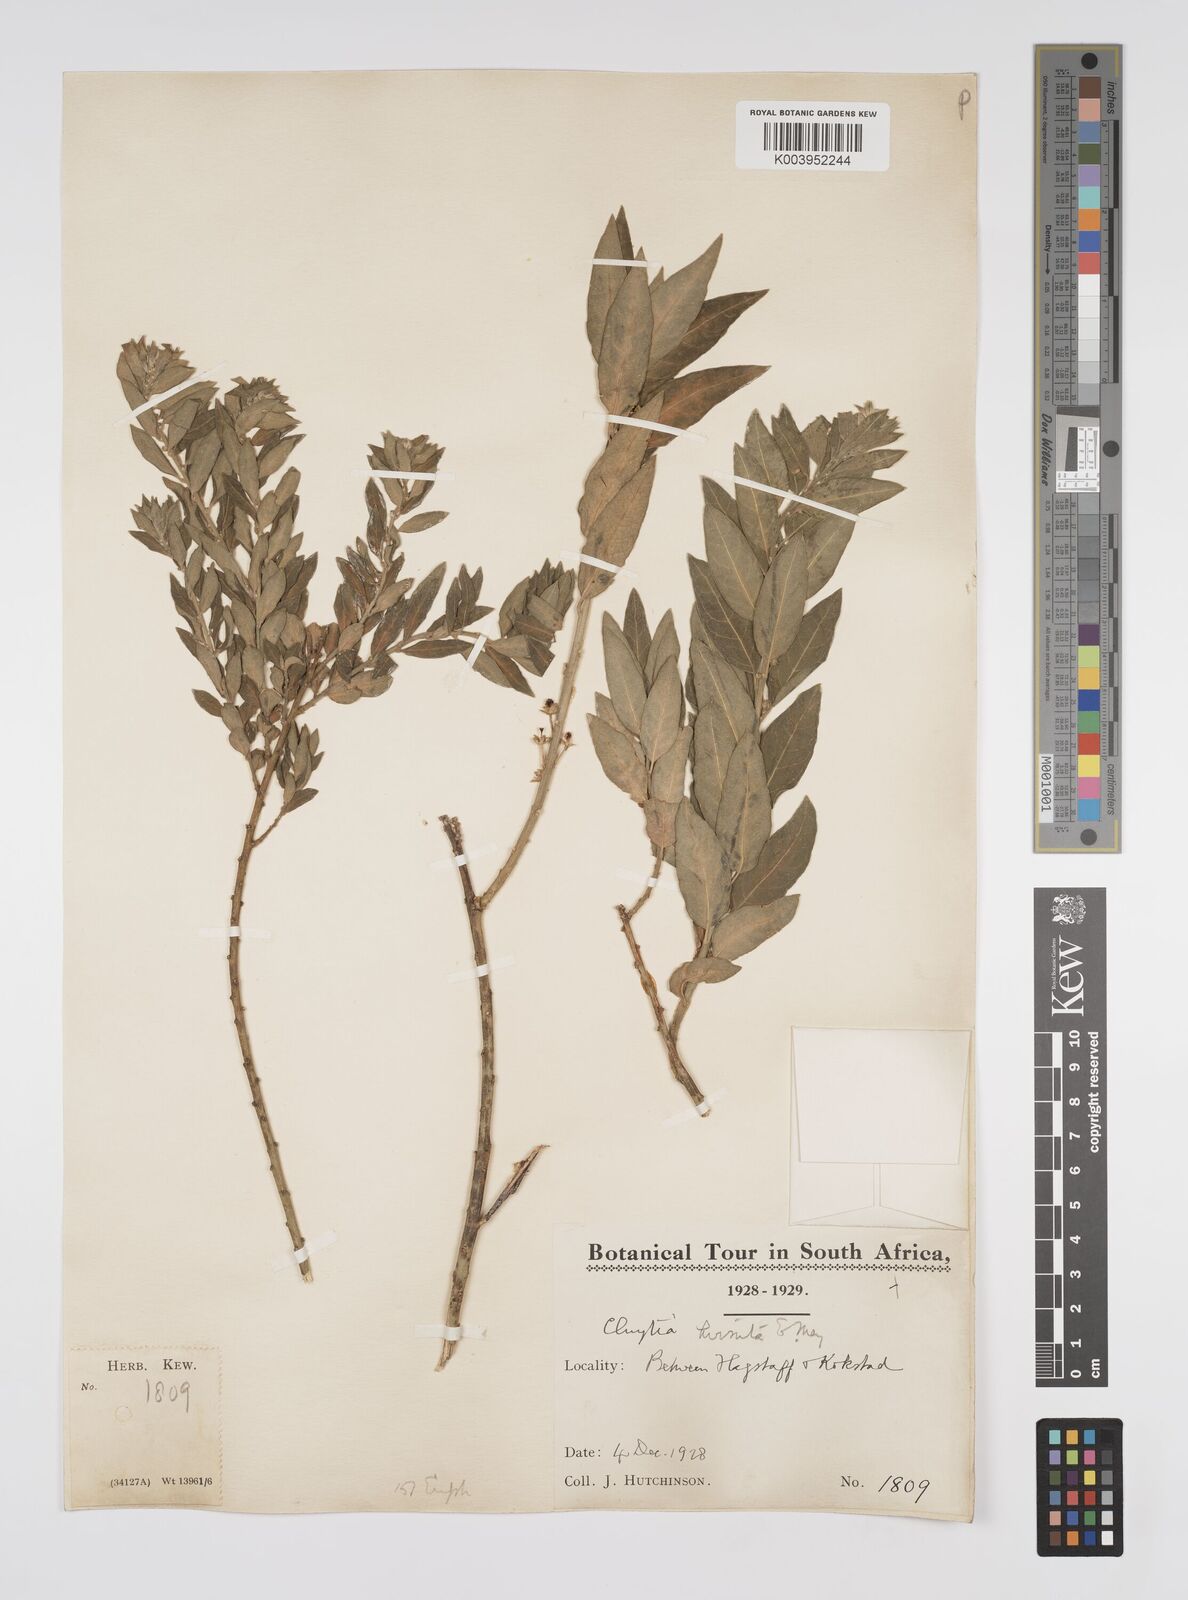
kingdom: Plantae
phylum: Tracheophyta
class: Magnoliopsida
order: Malpighiales
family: Peraceae
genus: Clutia
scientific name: Clutia affinis
